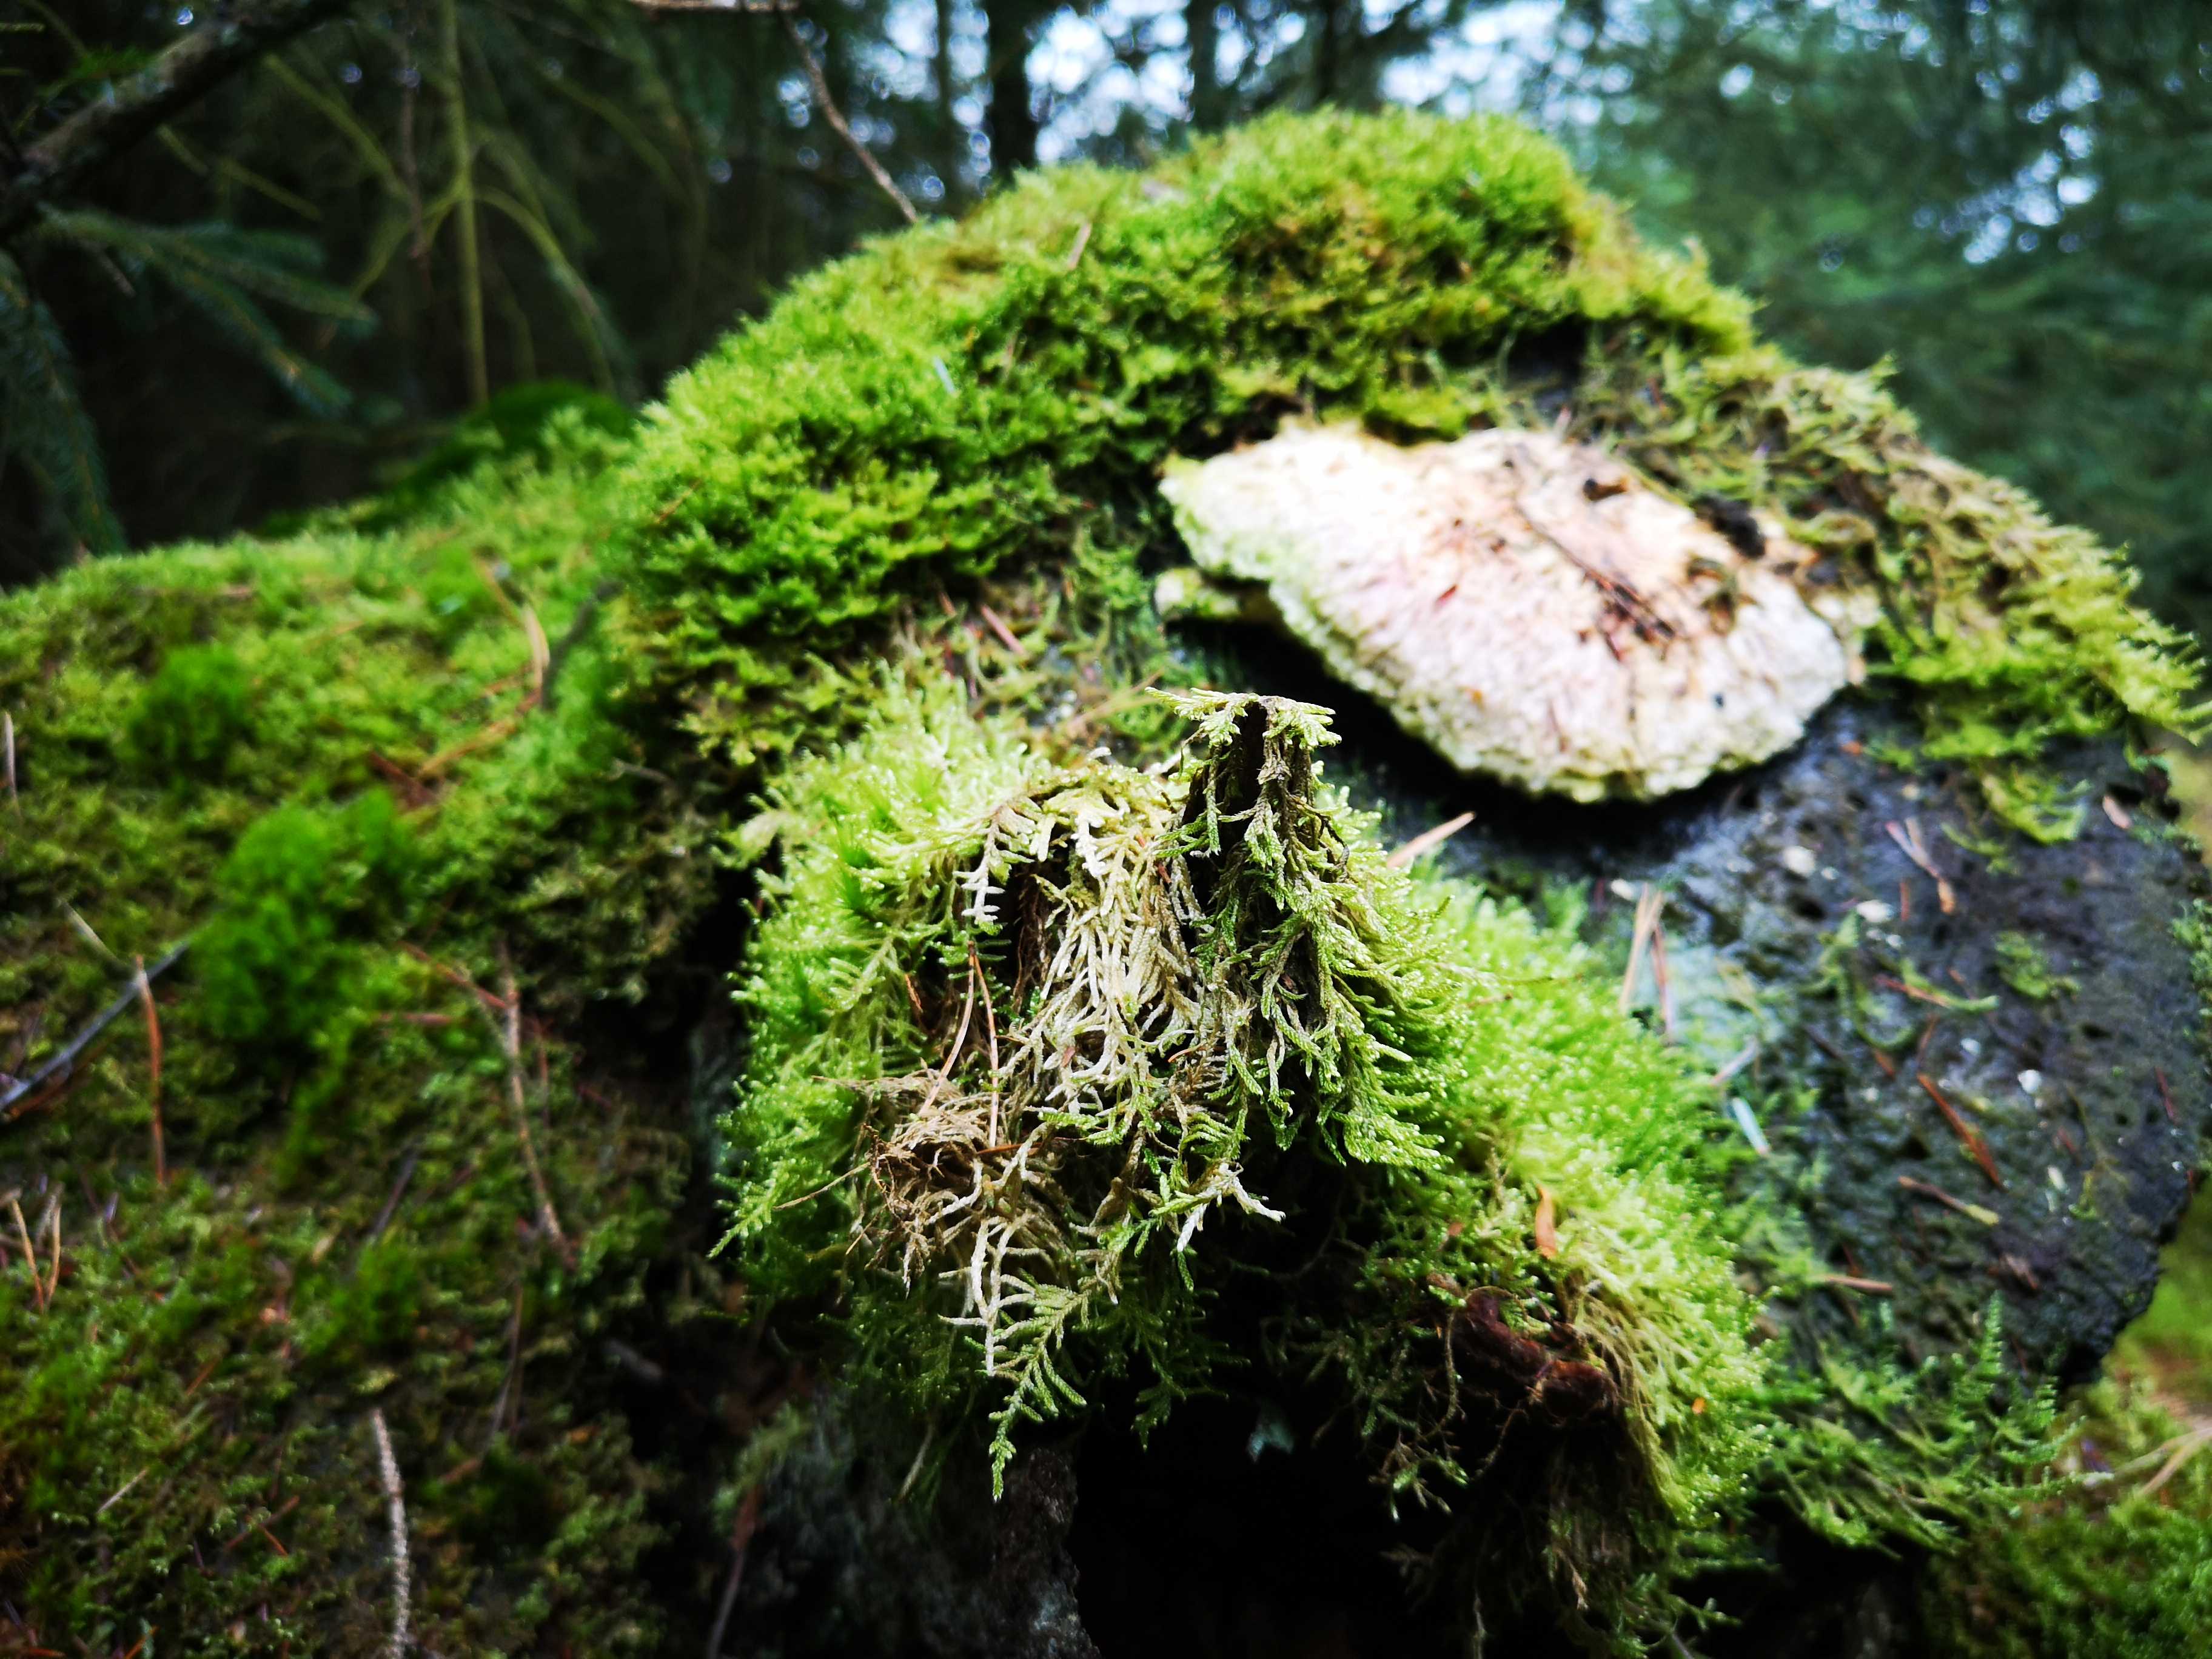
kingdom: Fungi
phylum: Basidiomycota
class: Agaricomycetes
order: Polyporales
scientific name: Polyporales
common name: poresvampordenen
